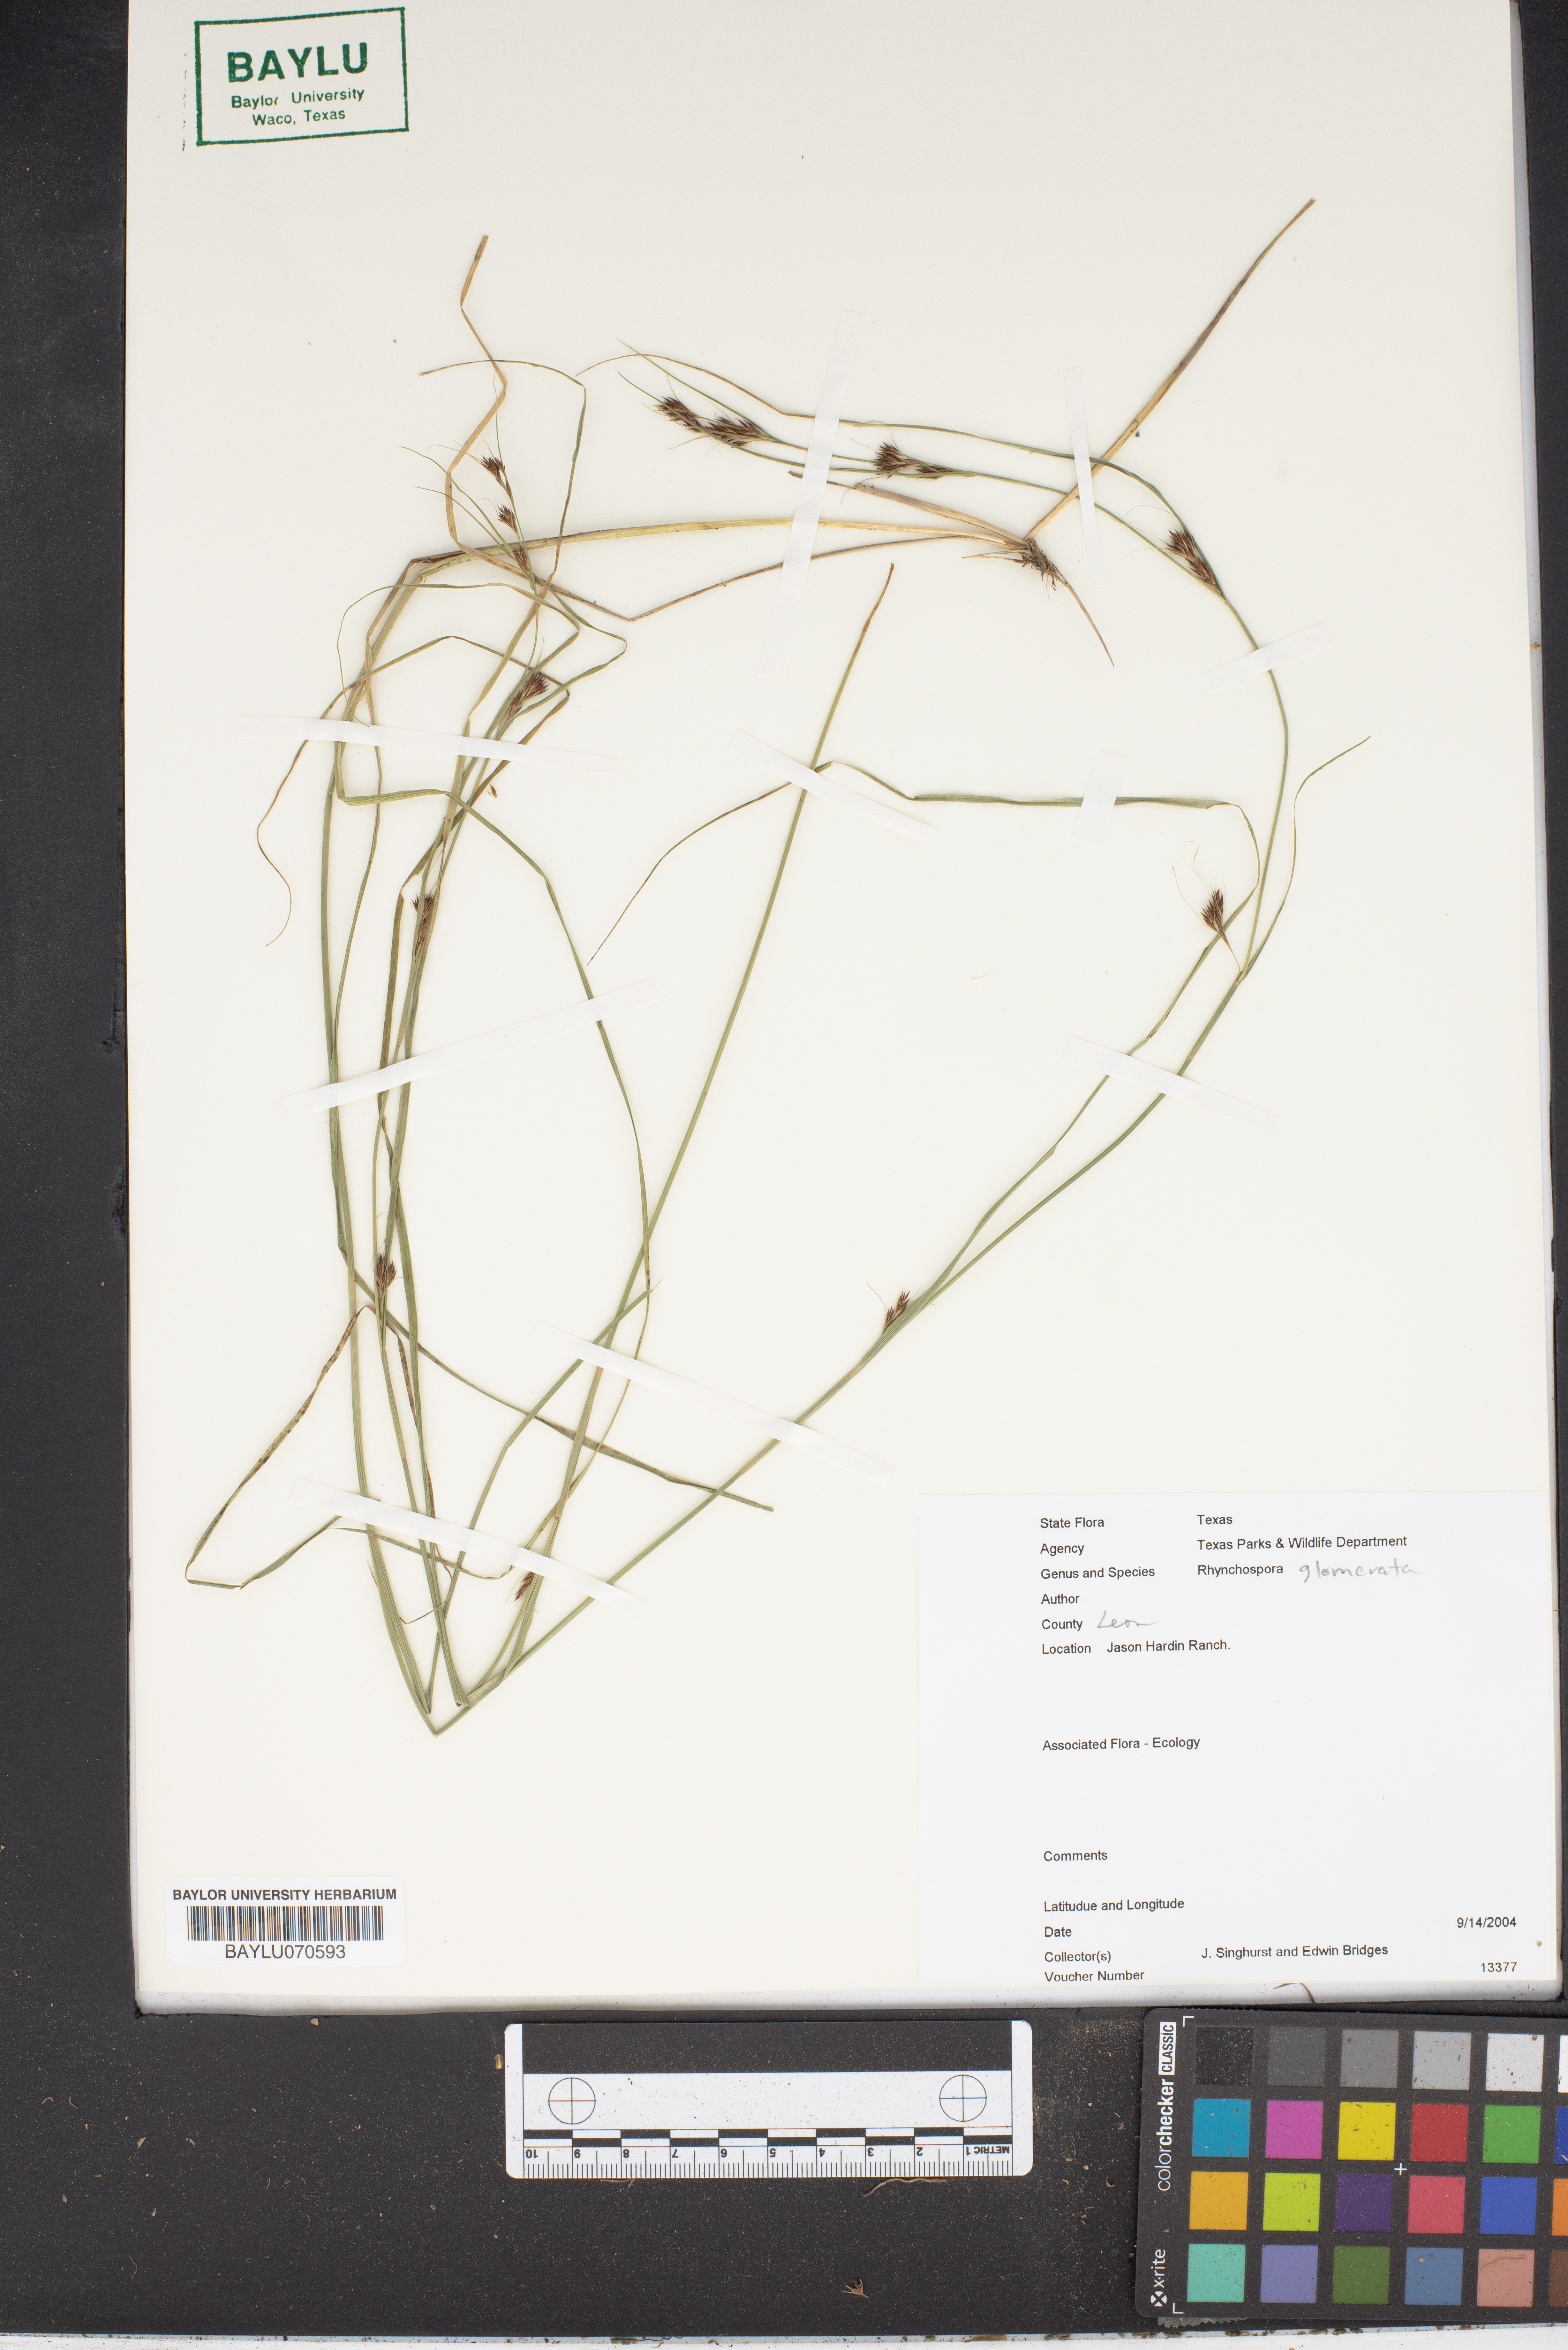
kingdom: Plantae
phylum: Tracheophyta
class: Liliopsida
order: Poales
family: Cyperaceae
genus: Rhynchospora
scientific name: Rhynchospora glomerata
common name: Cluster beak sedge
